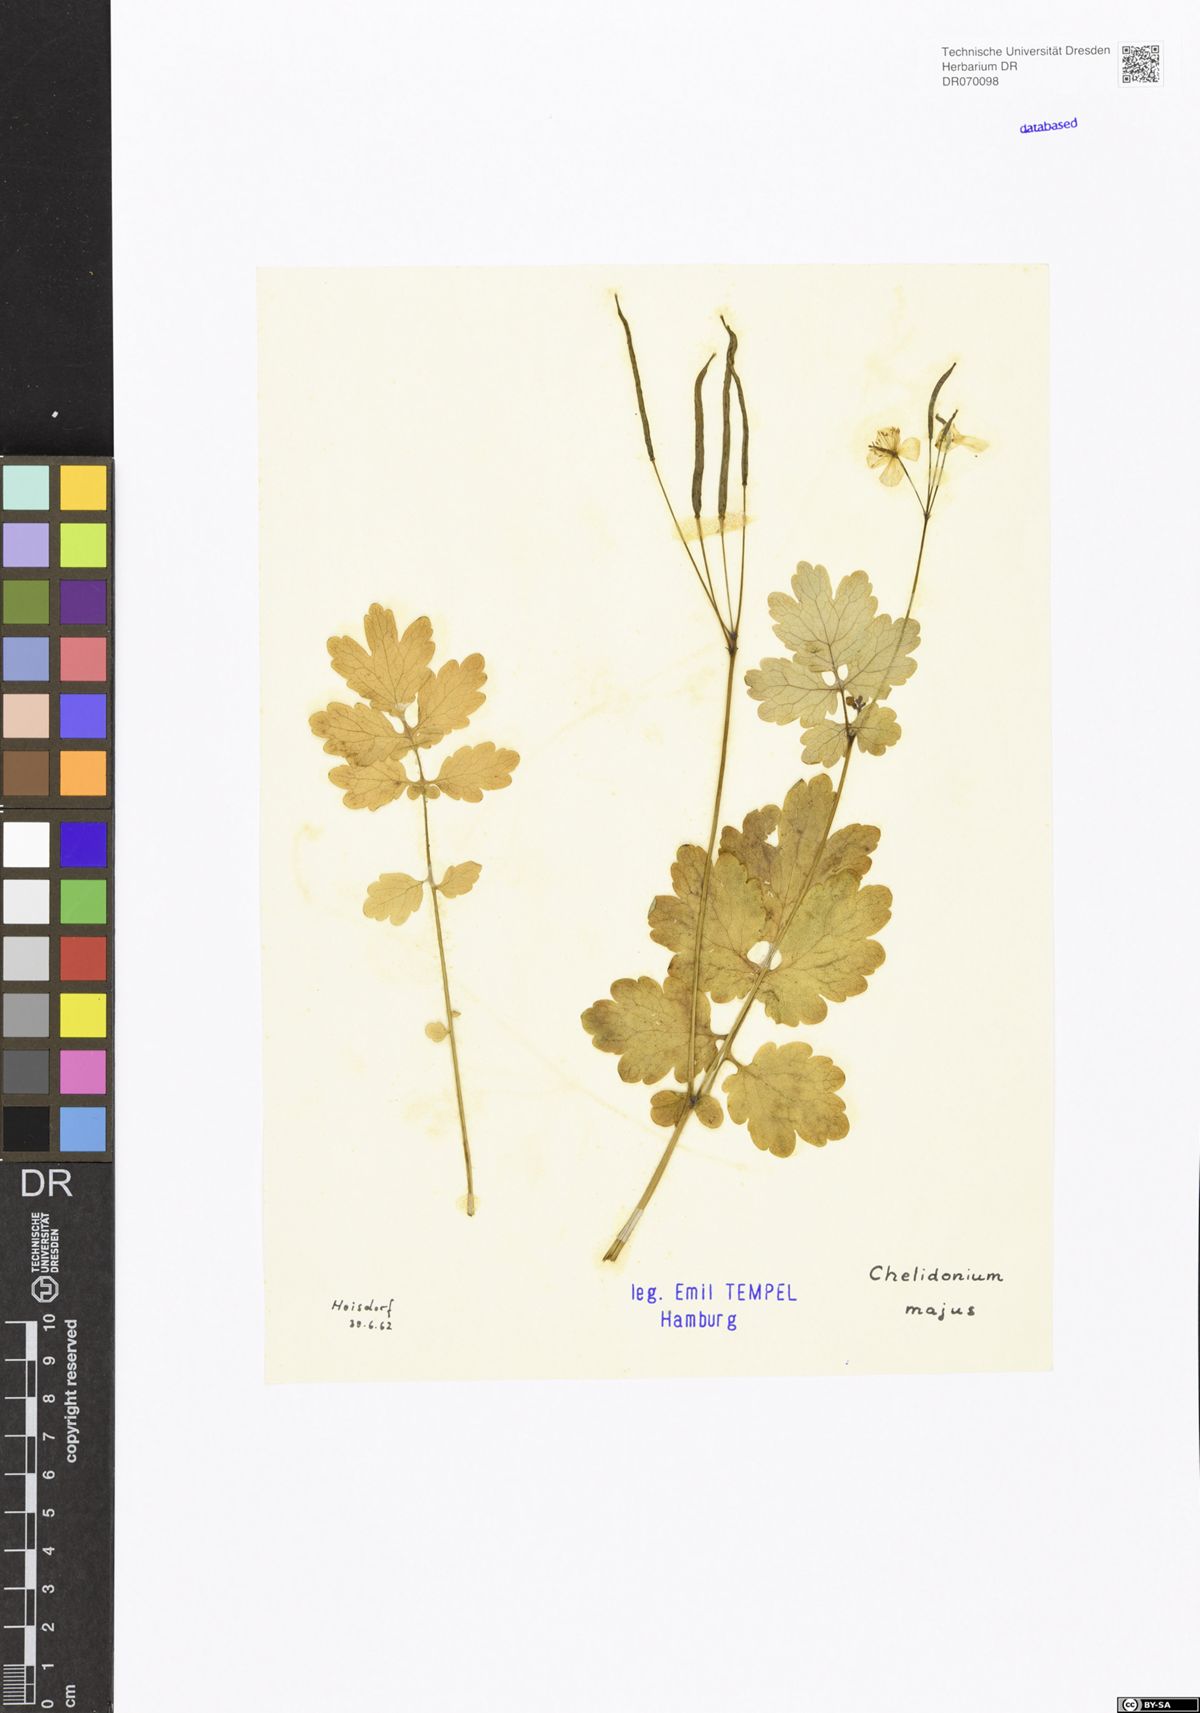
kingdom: Plantae
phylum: Tracheophyta
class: Magnoliopsida
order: Ranunculales
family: Papaveraceae
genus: Chelidonium
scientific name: Chelidonium majus
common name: Greater celandine
